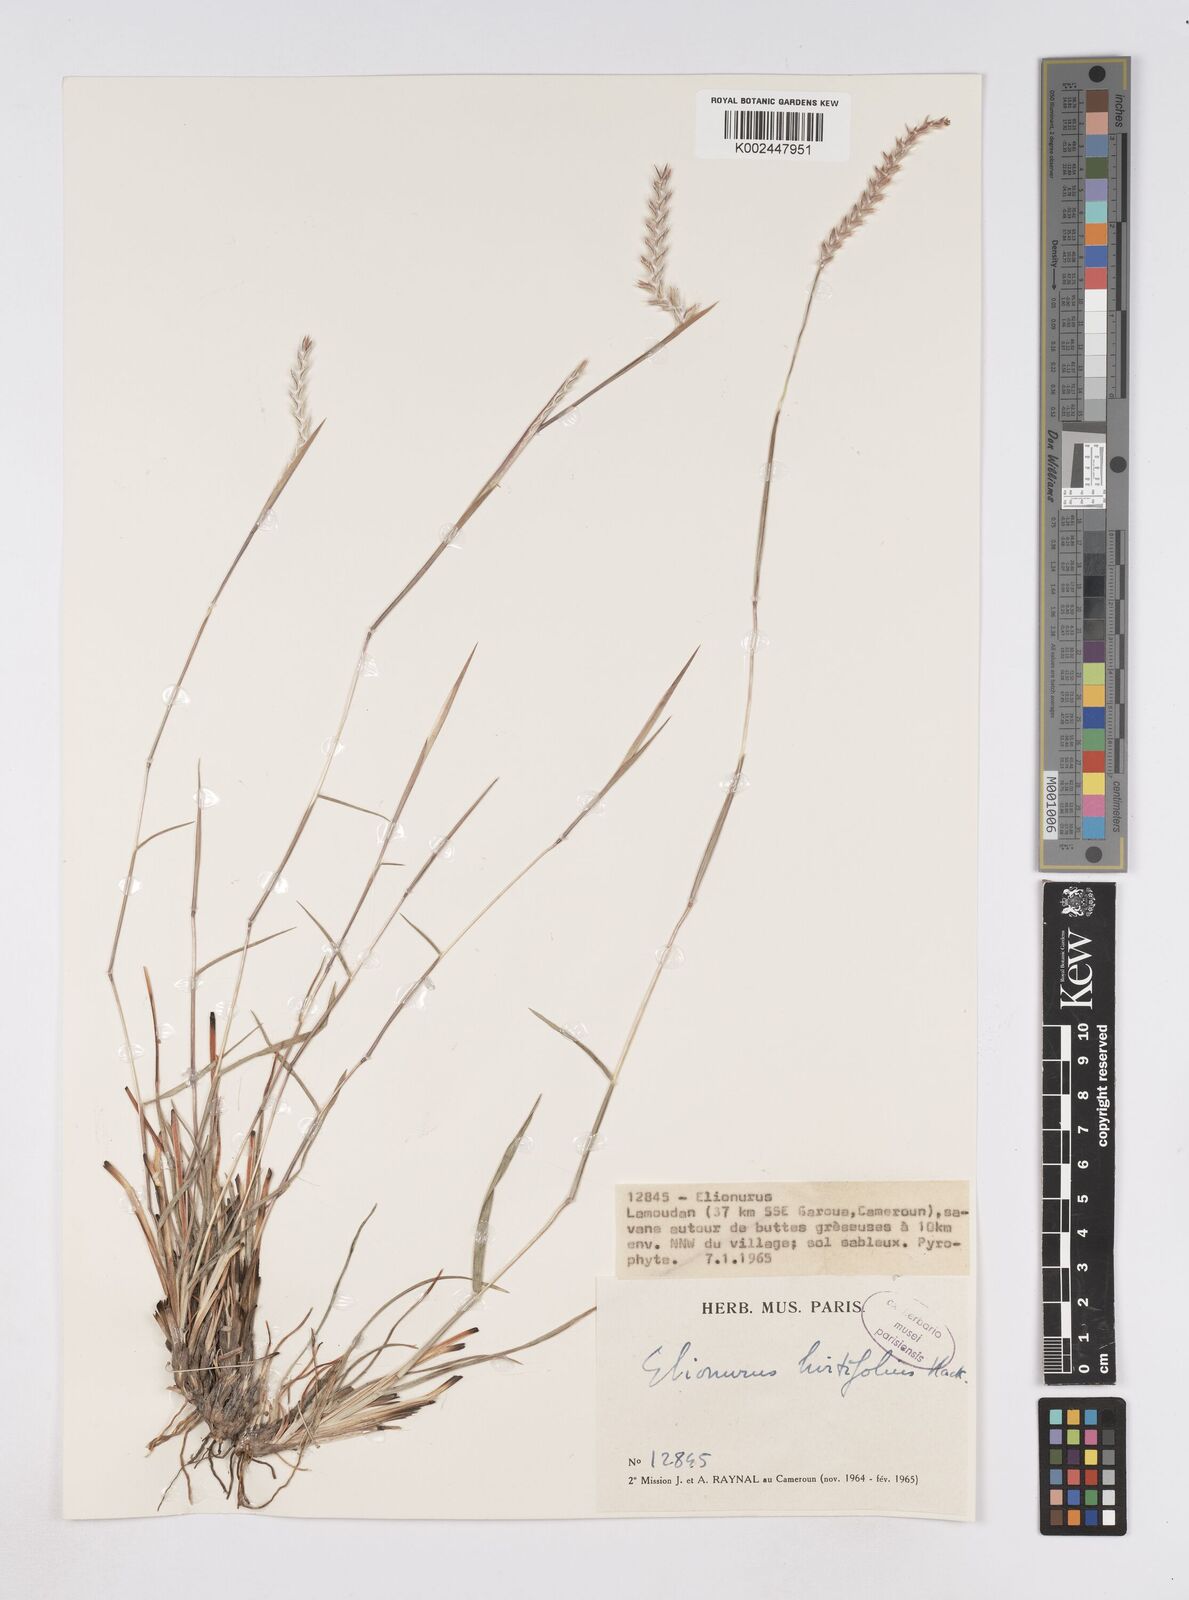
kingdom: Plantae
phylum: Tracheophyta
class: Liliopsida
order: Poales
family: Poaceae
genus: Elionurus
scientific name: Elionurus hirtifolius
